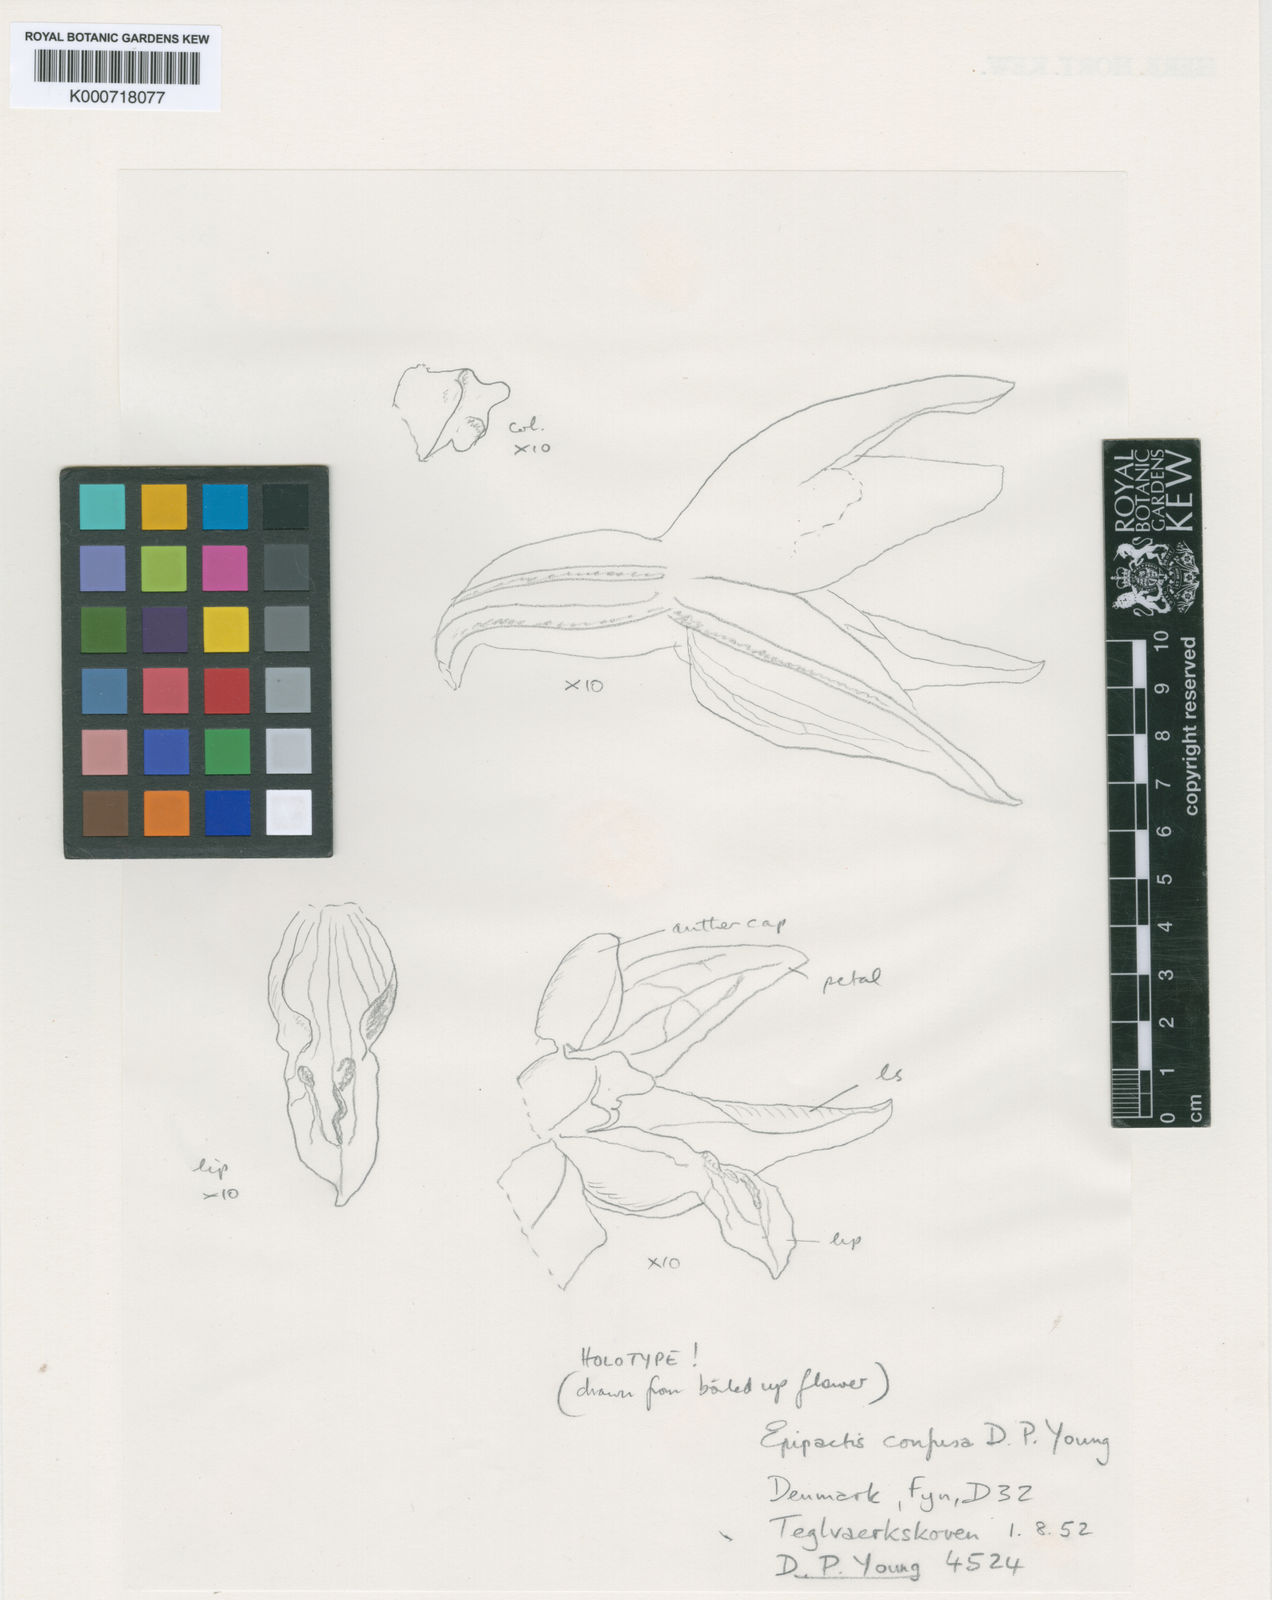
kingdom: Plantae
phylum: Tracheophyta
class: Liliopsida
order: Asparagales
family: Orchidaceae
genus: Epipactis
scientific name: Epipactis phyllanthes
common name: Green-flowered helleborine
